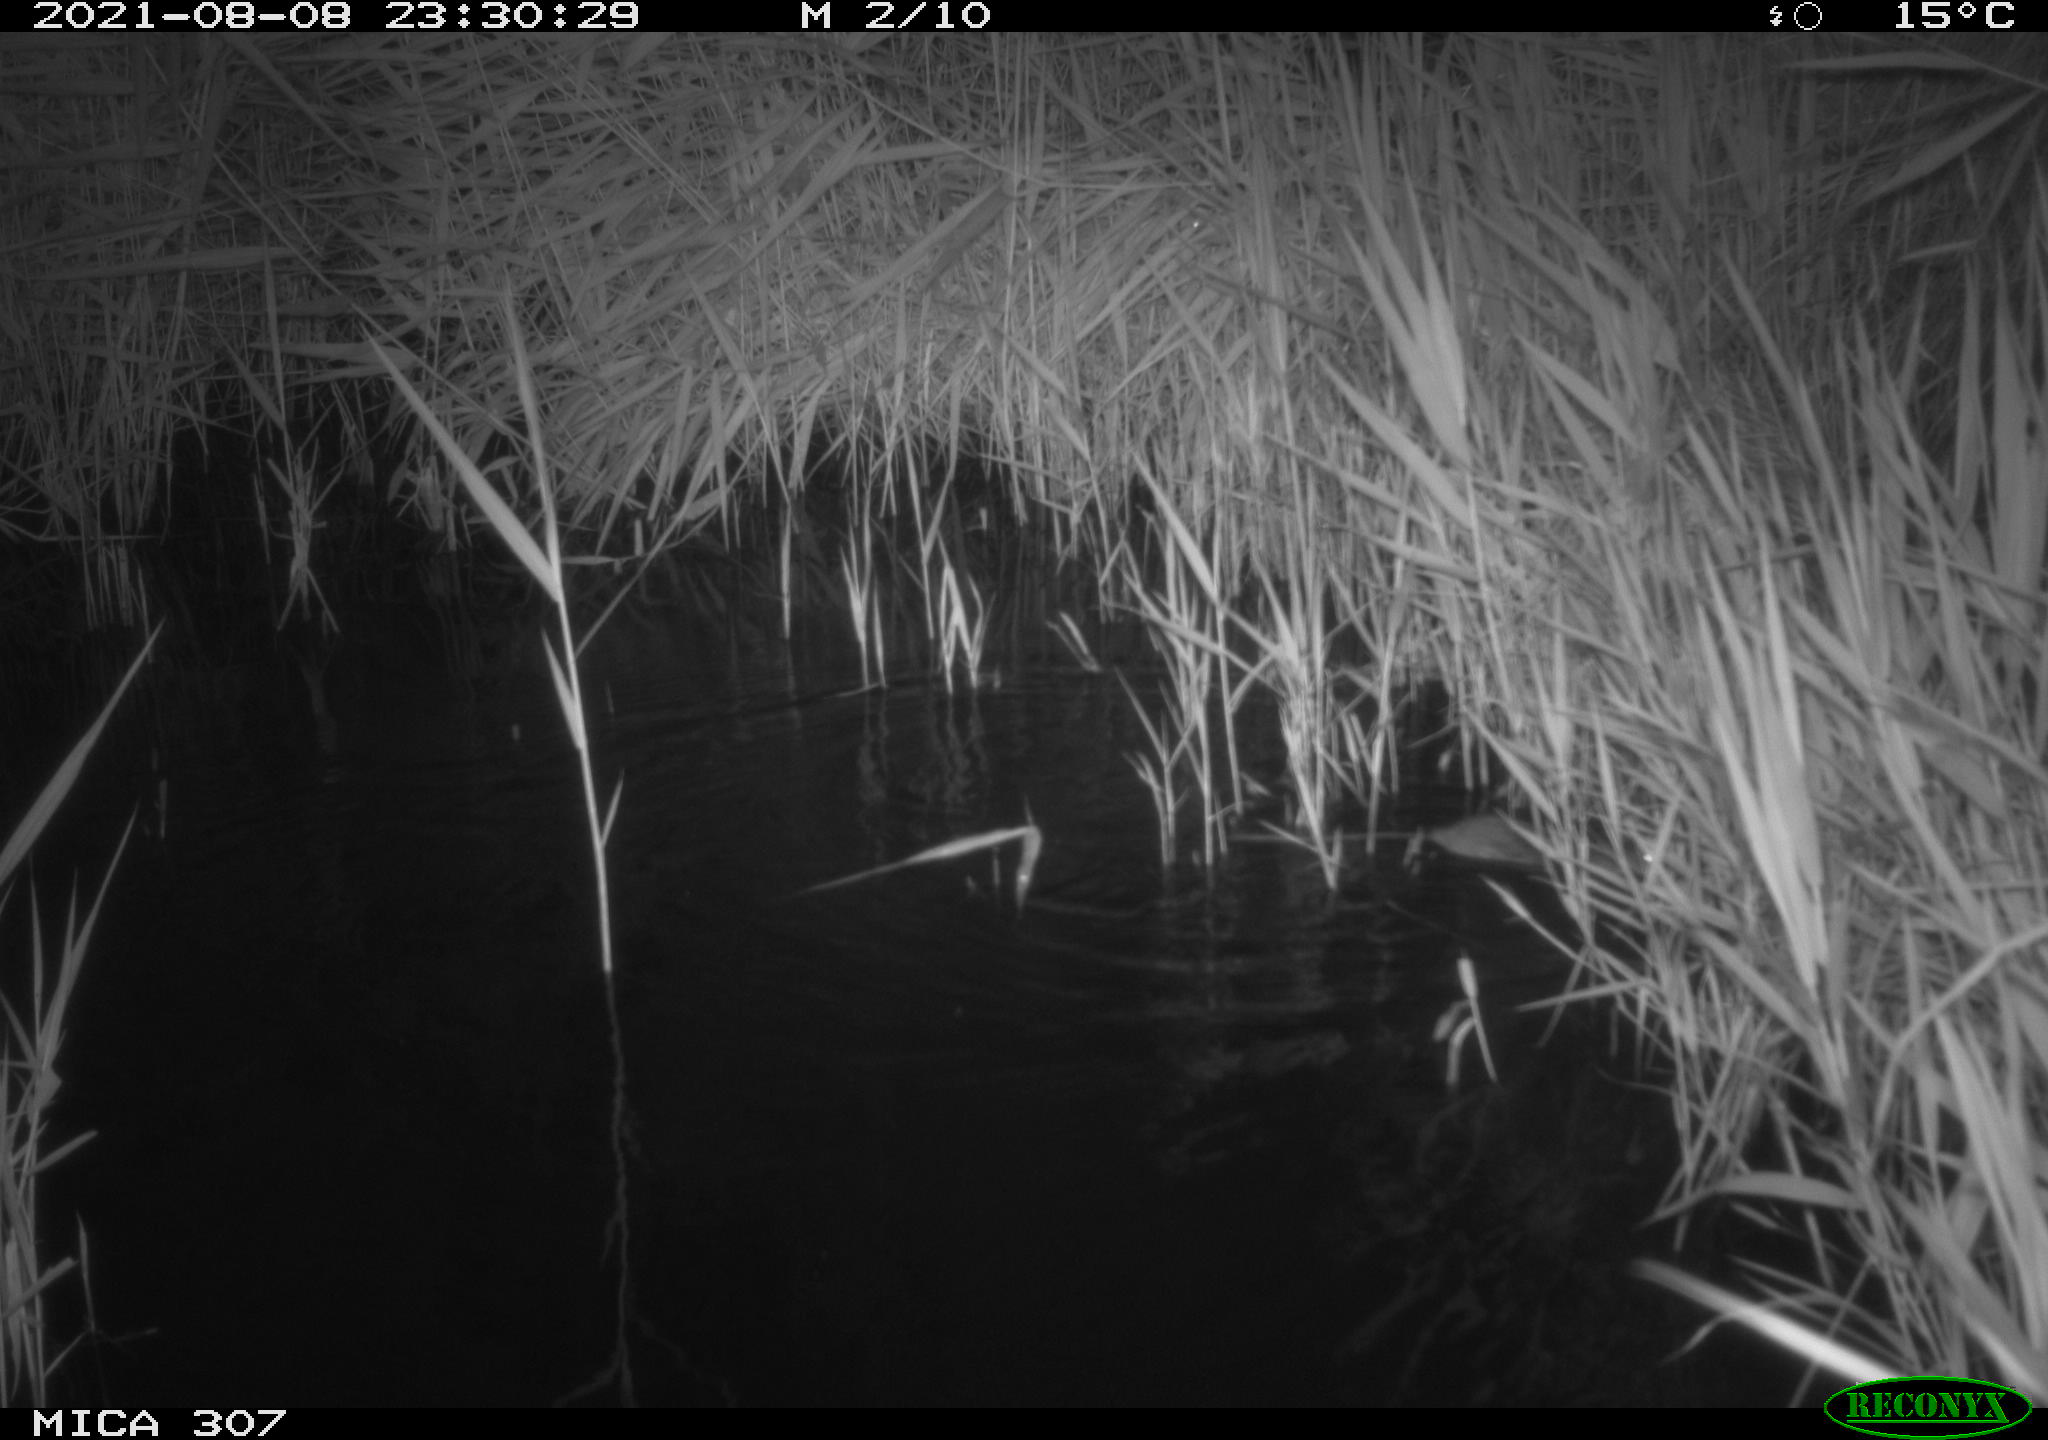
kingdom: Animalia
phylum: Chordata
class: Mammalia
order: Rodentia
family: Muridae
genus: Rattus
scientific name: Rattus norvegicus
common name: Brown rat
